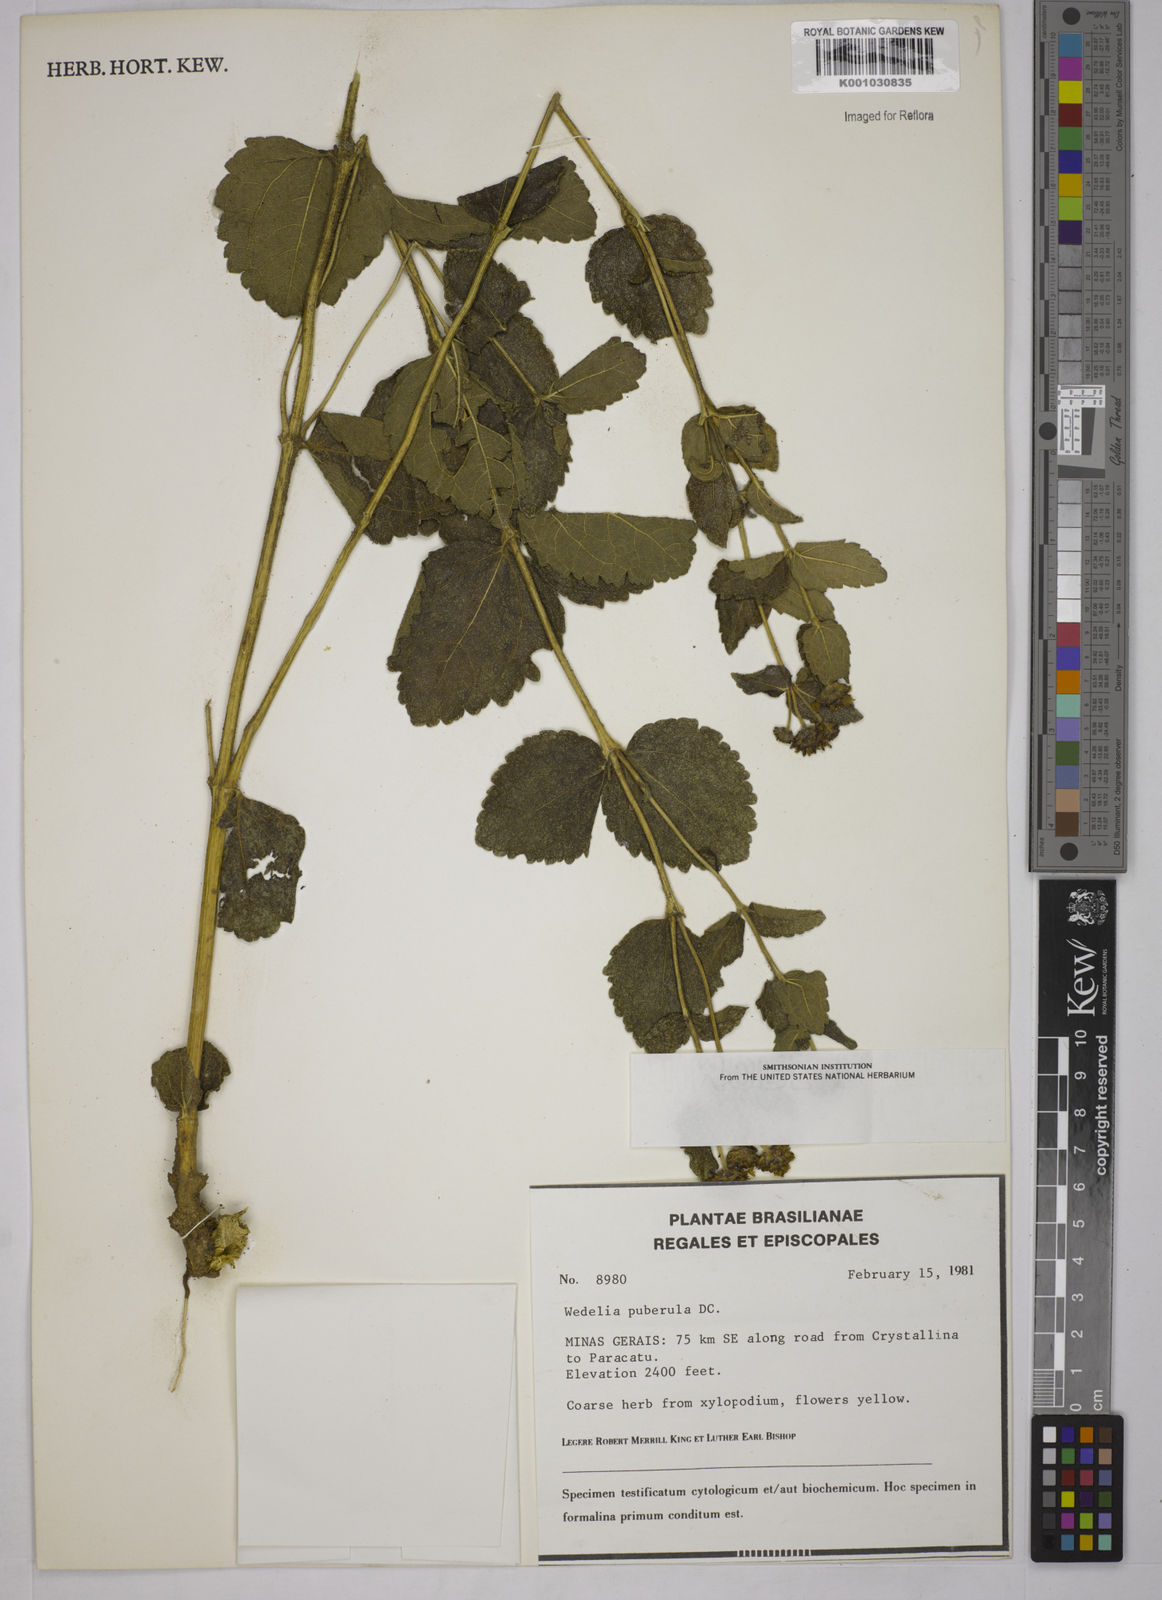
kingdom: Plantae
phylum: Tracheophyta
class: Magnoliopsida
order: Asterales
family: Asteraceae
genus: Wedelia
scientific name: Wedelia puberula
